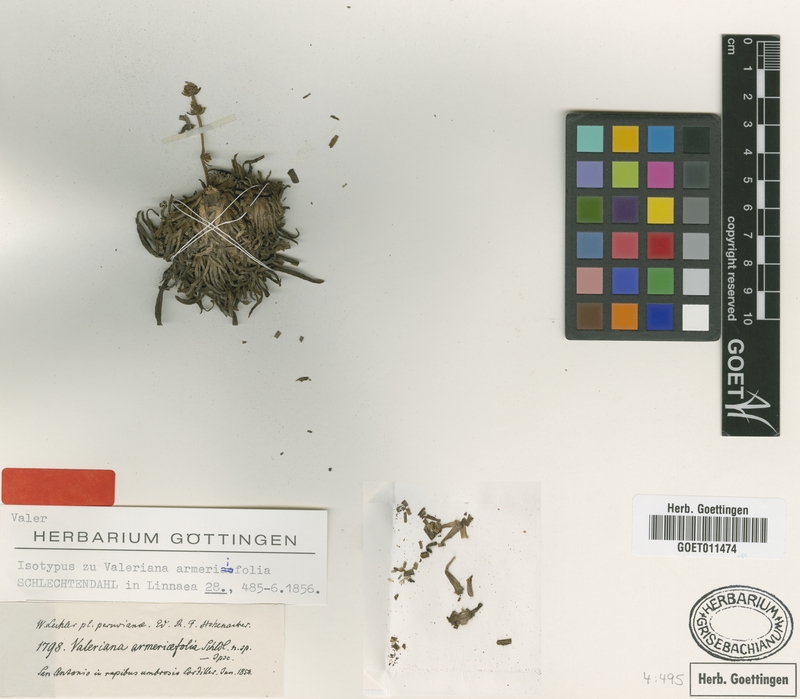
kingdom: Plantae
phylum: Tracheophyta
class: Magnoliopsida
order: Dipsacales
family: Caprifoliaceae
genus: Valeriana
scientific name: Valeriana coarctata
